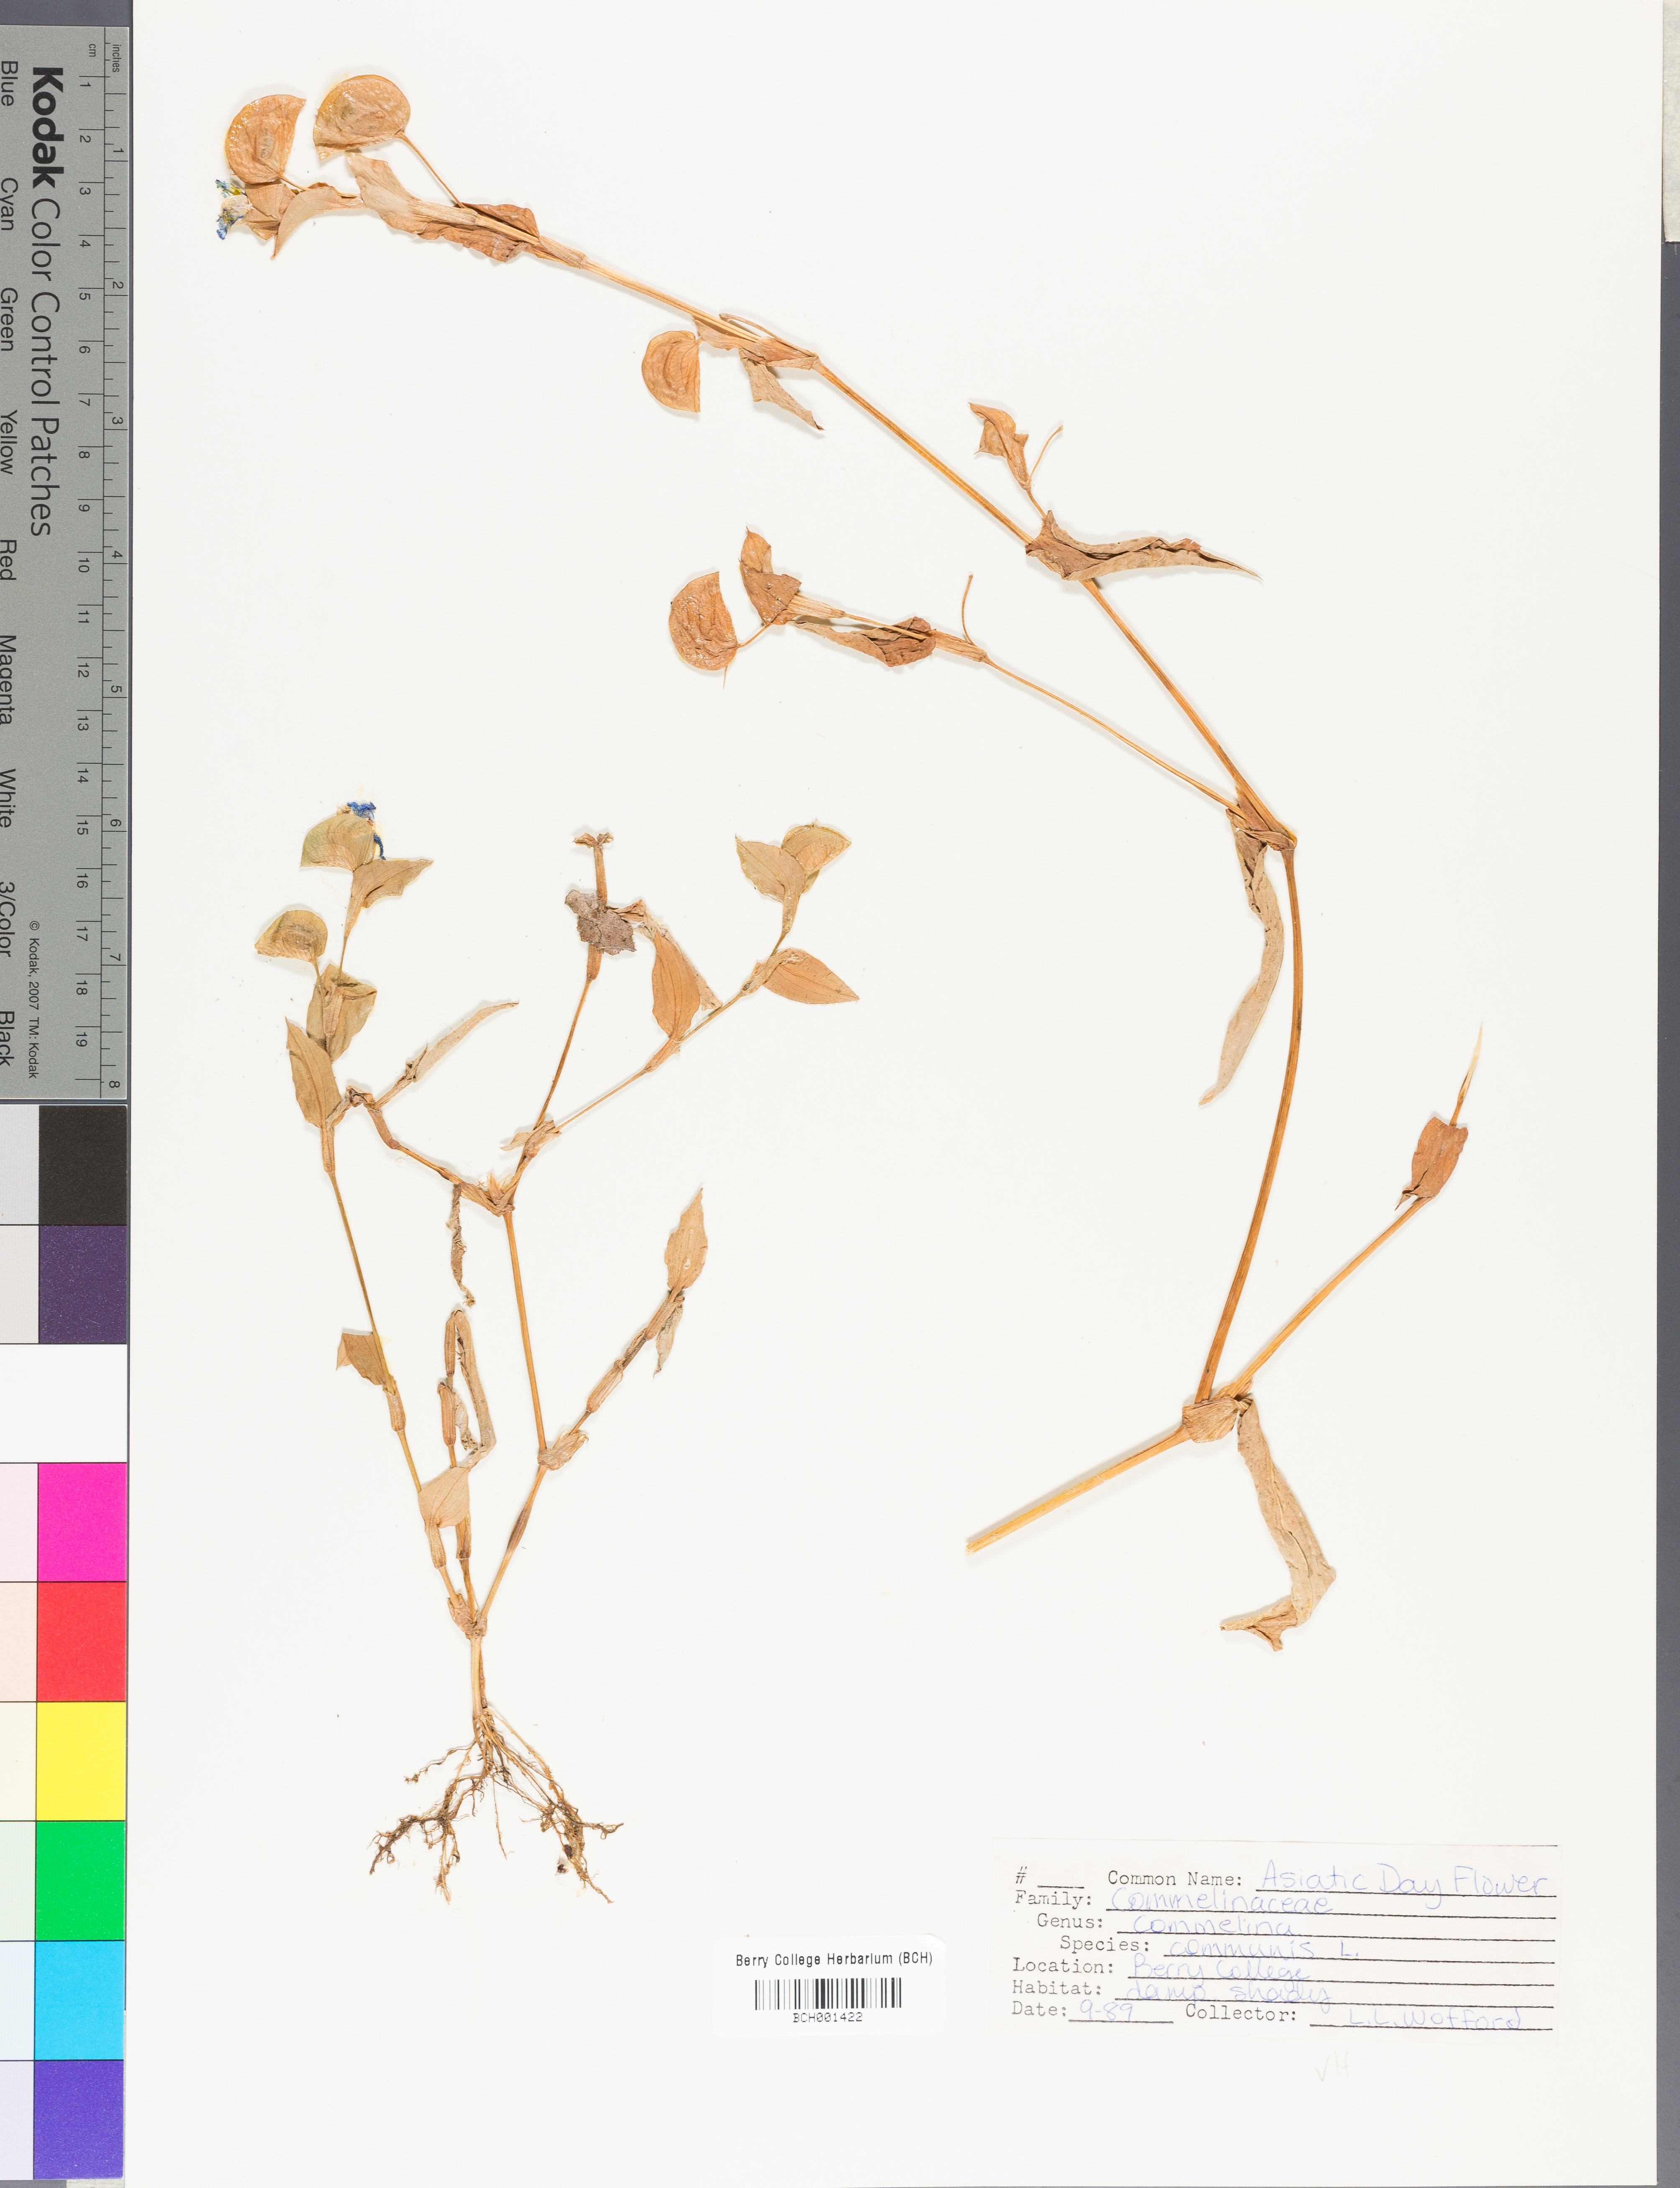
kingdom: Plantae
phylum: Tracheophyta
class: Liliopsida
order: Commelinales
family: Commelinaceae
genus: Commelina
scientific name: Commelina communis
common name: Asiatic dayflower
